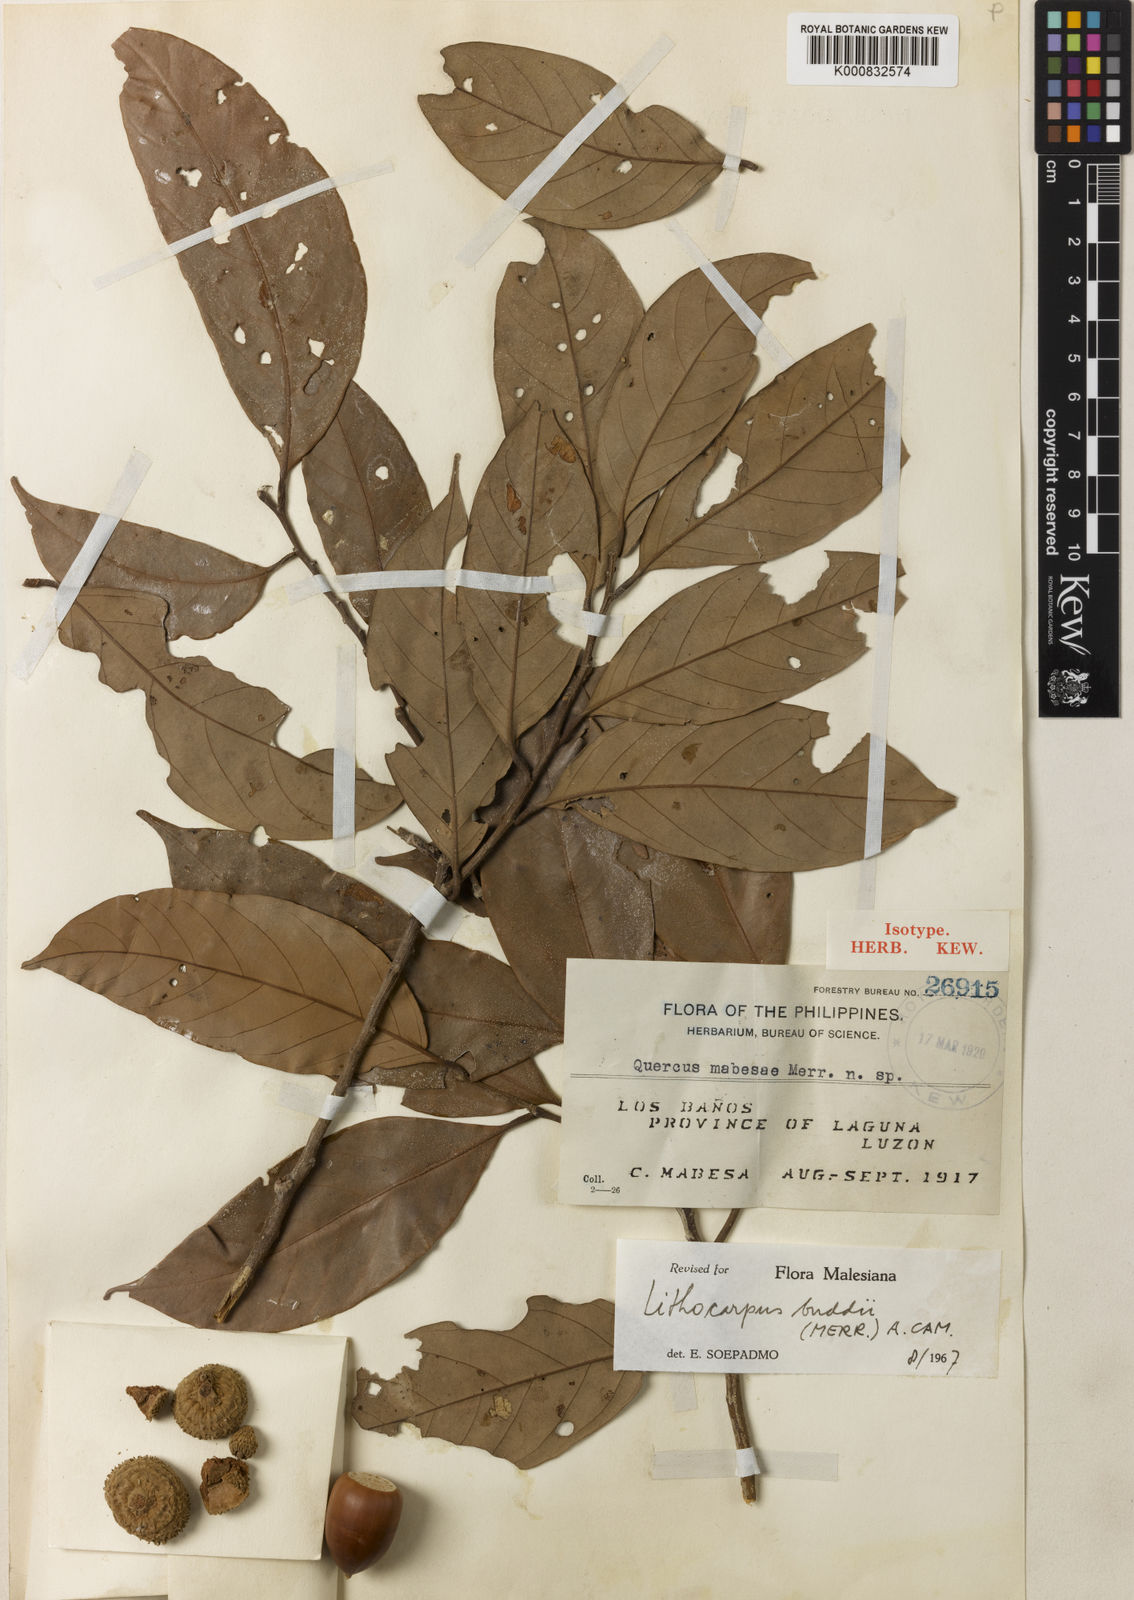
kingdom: Plantae
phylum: Tracheophyta
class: Magnoliopsida
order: Fagales
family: Fagaceae
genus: Lithocarpus
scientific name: Lithocarpus robinsonii
